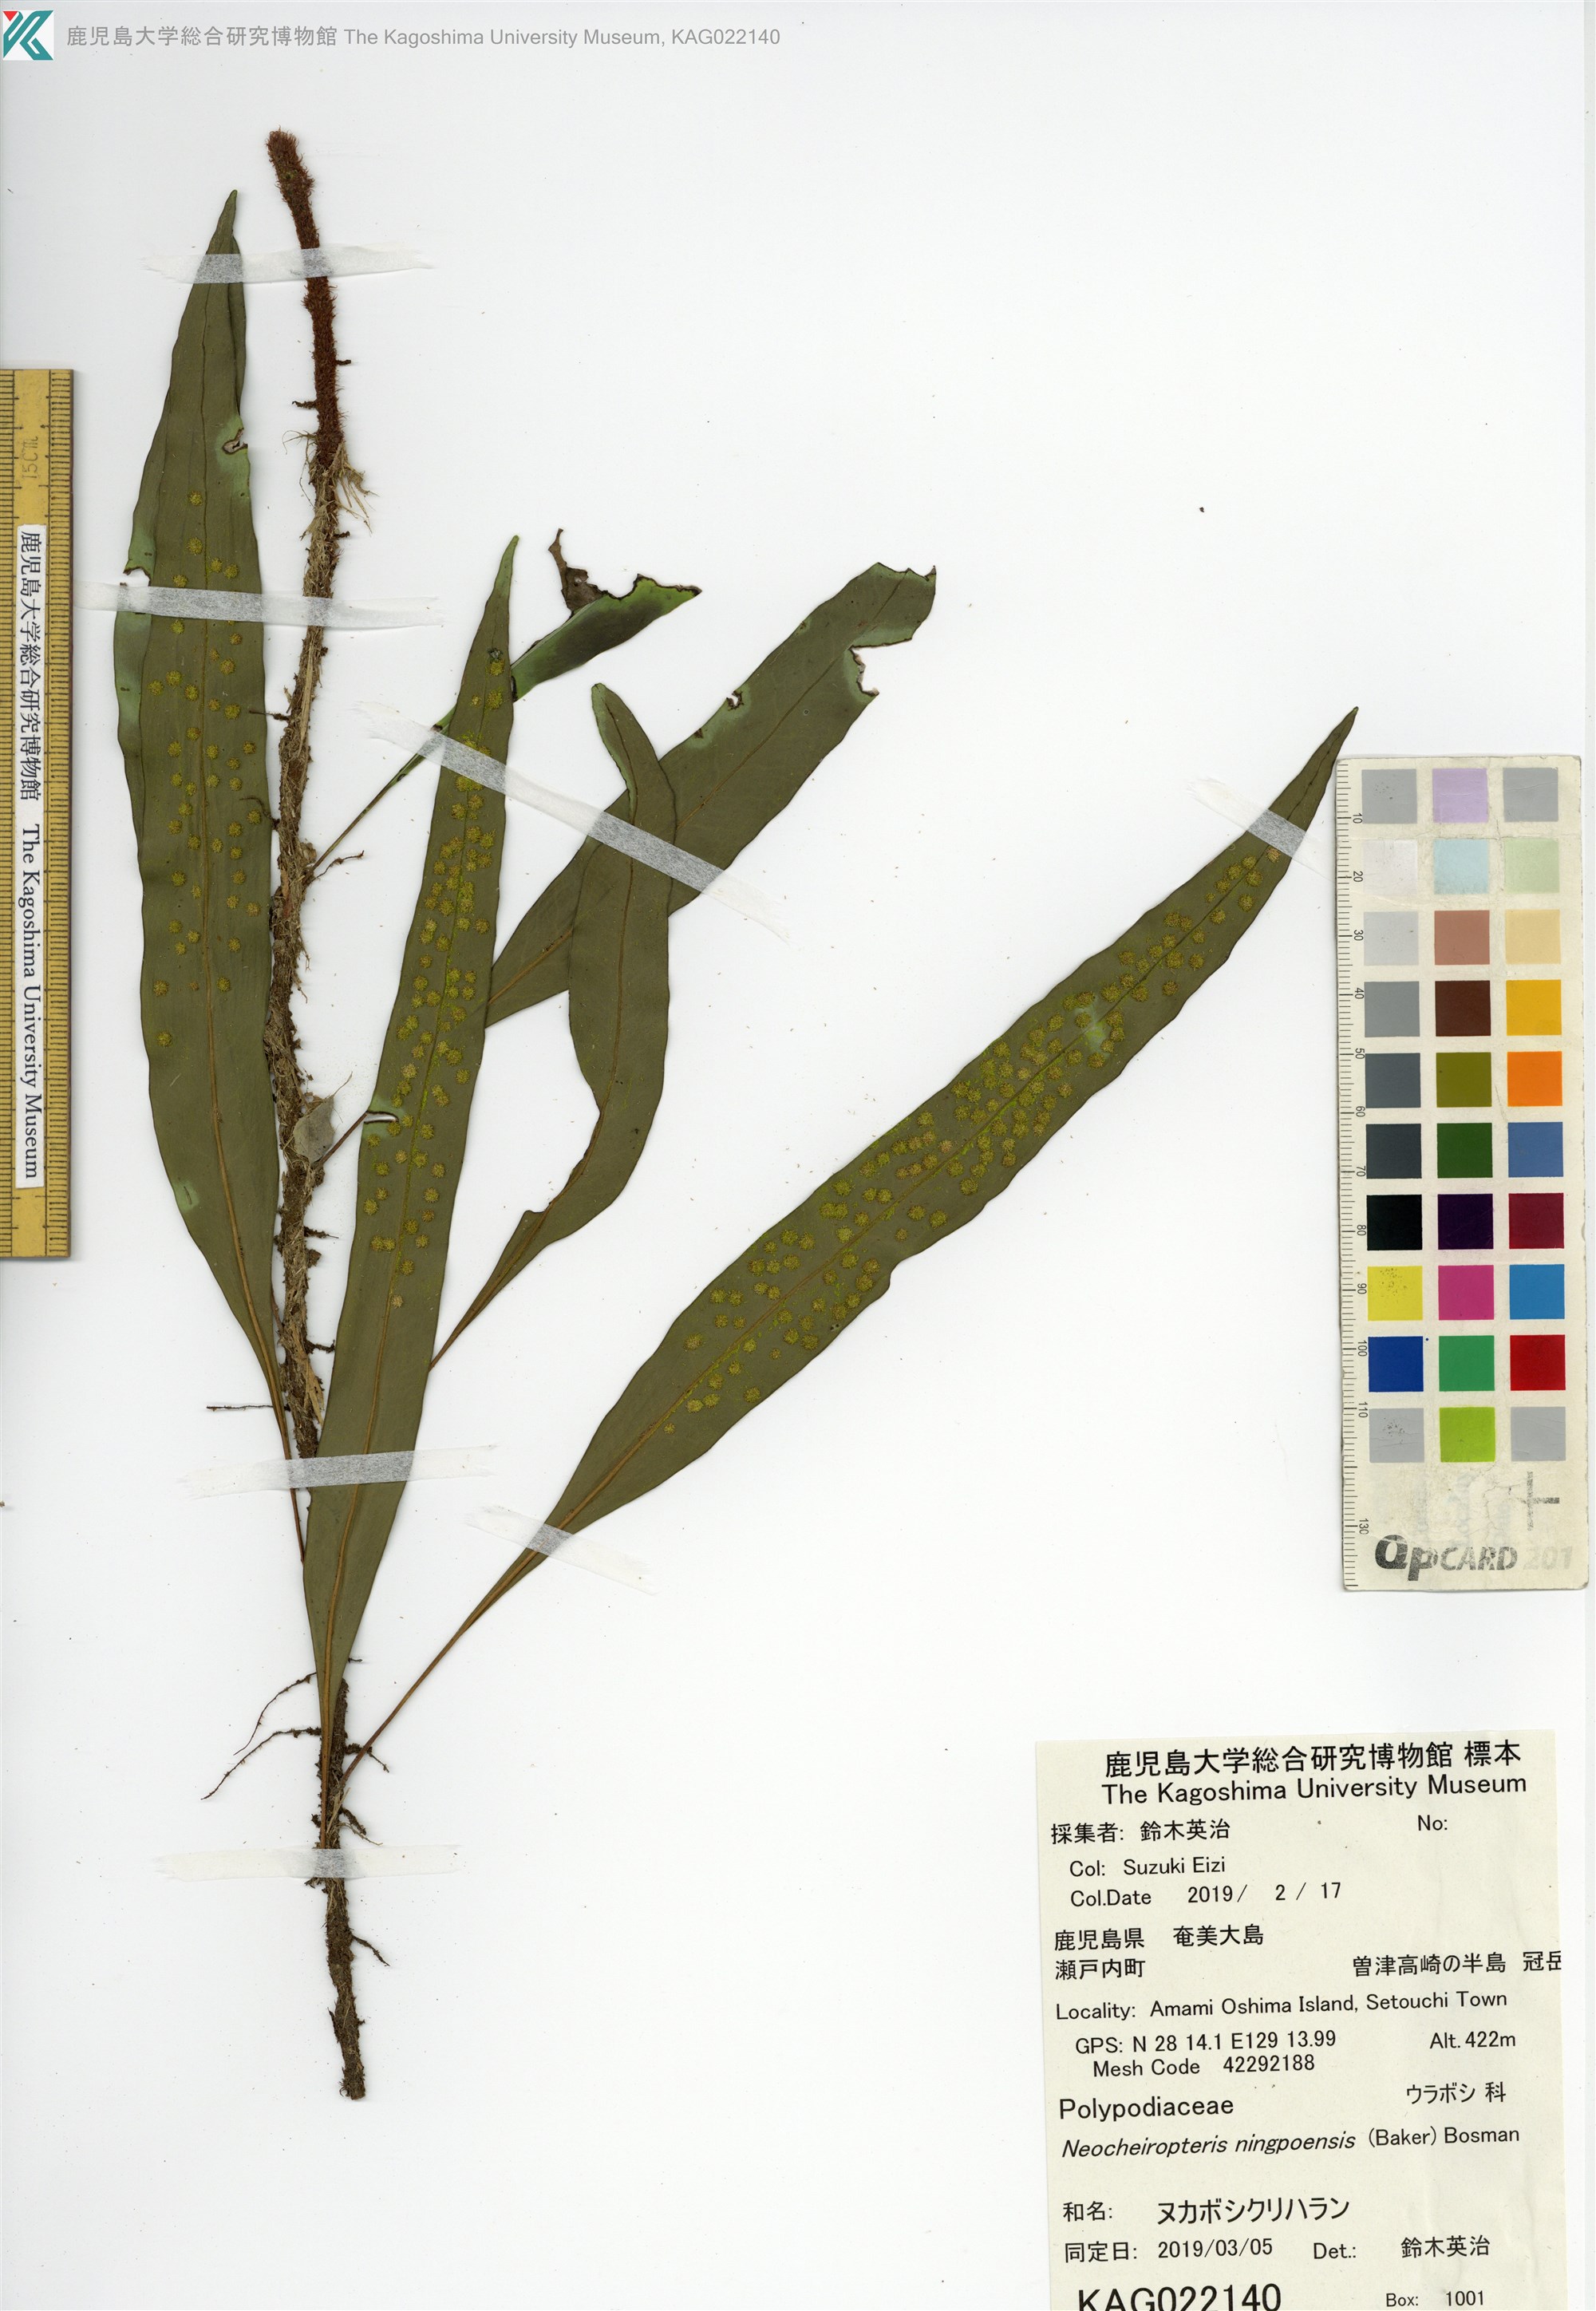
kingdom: Plantae
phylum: Tracheophyta
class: Polypodiopsida
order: Polypodiales
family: Polypodiaceae
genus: Lepisorus
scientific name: Lepisorus superficialis
